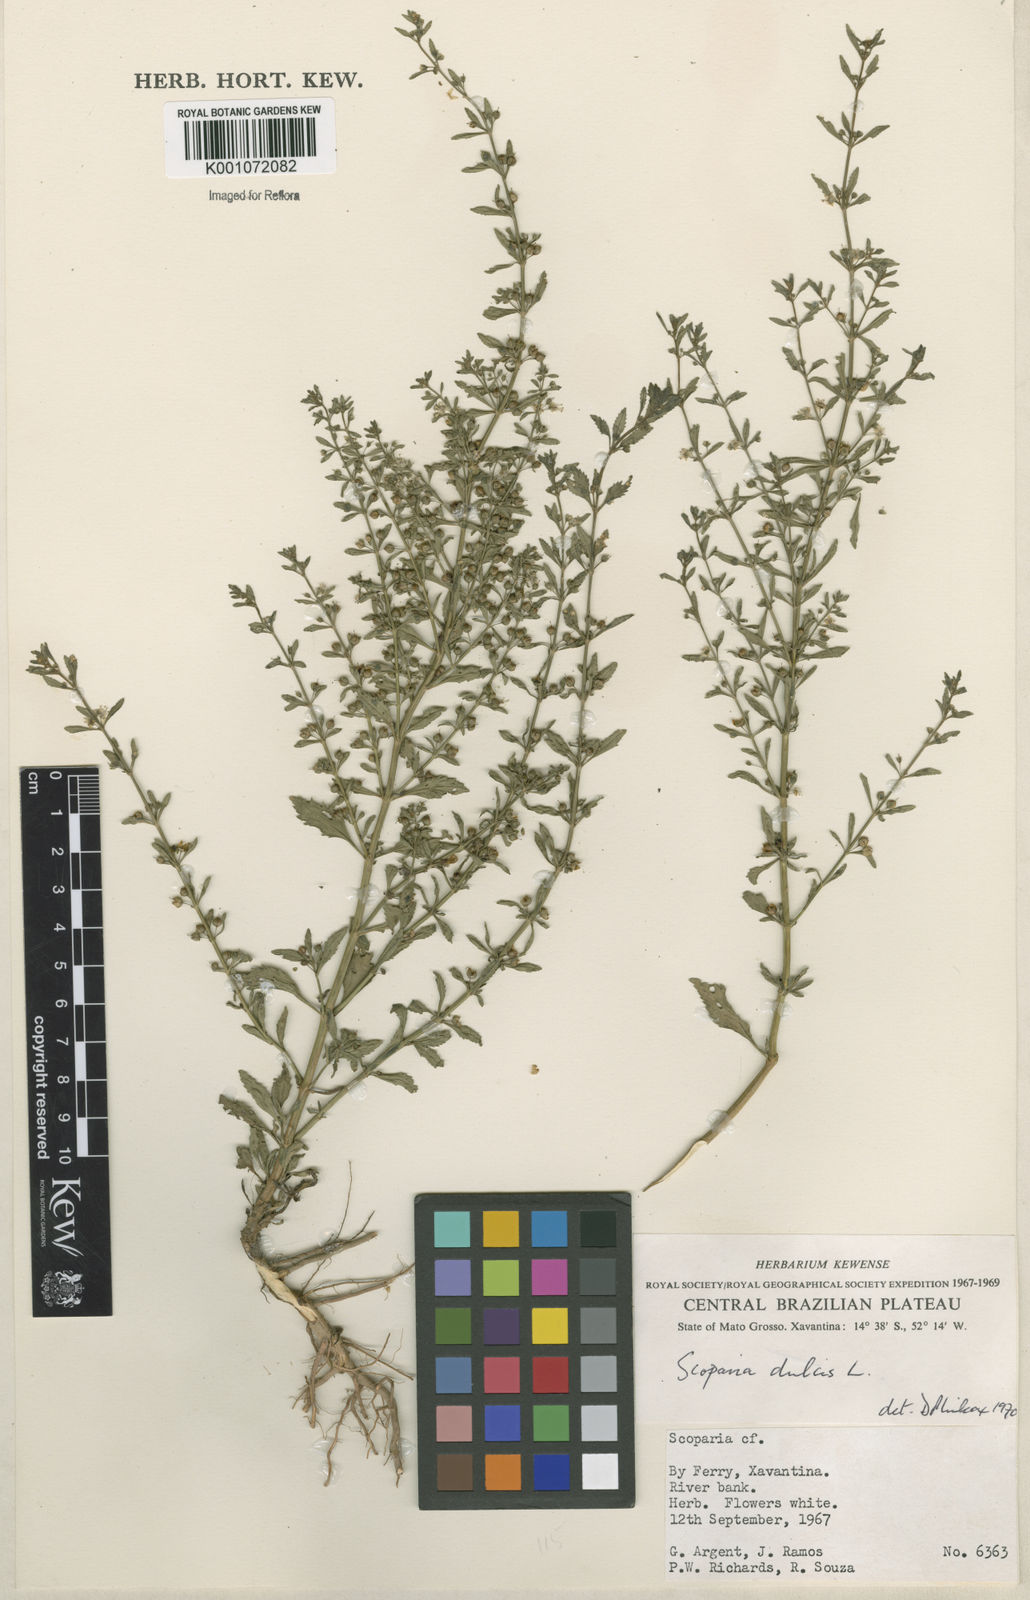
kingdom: Plantae
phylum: Tracheophyta
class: Magnoliopsida
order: Lamiales
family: Plantaginaceae
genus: Scoparia
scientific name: Scoparia dulcis
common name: Scoparia-weed
